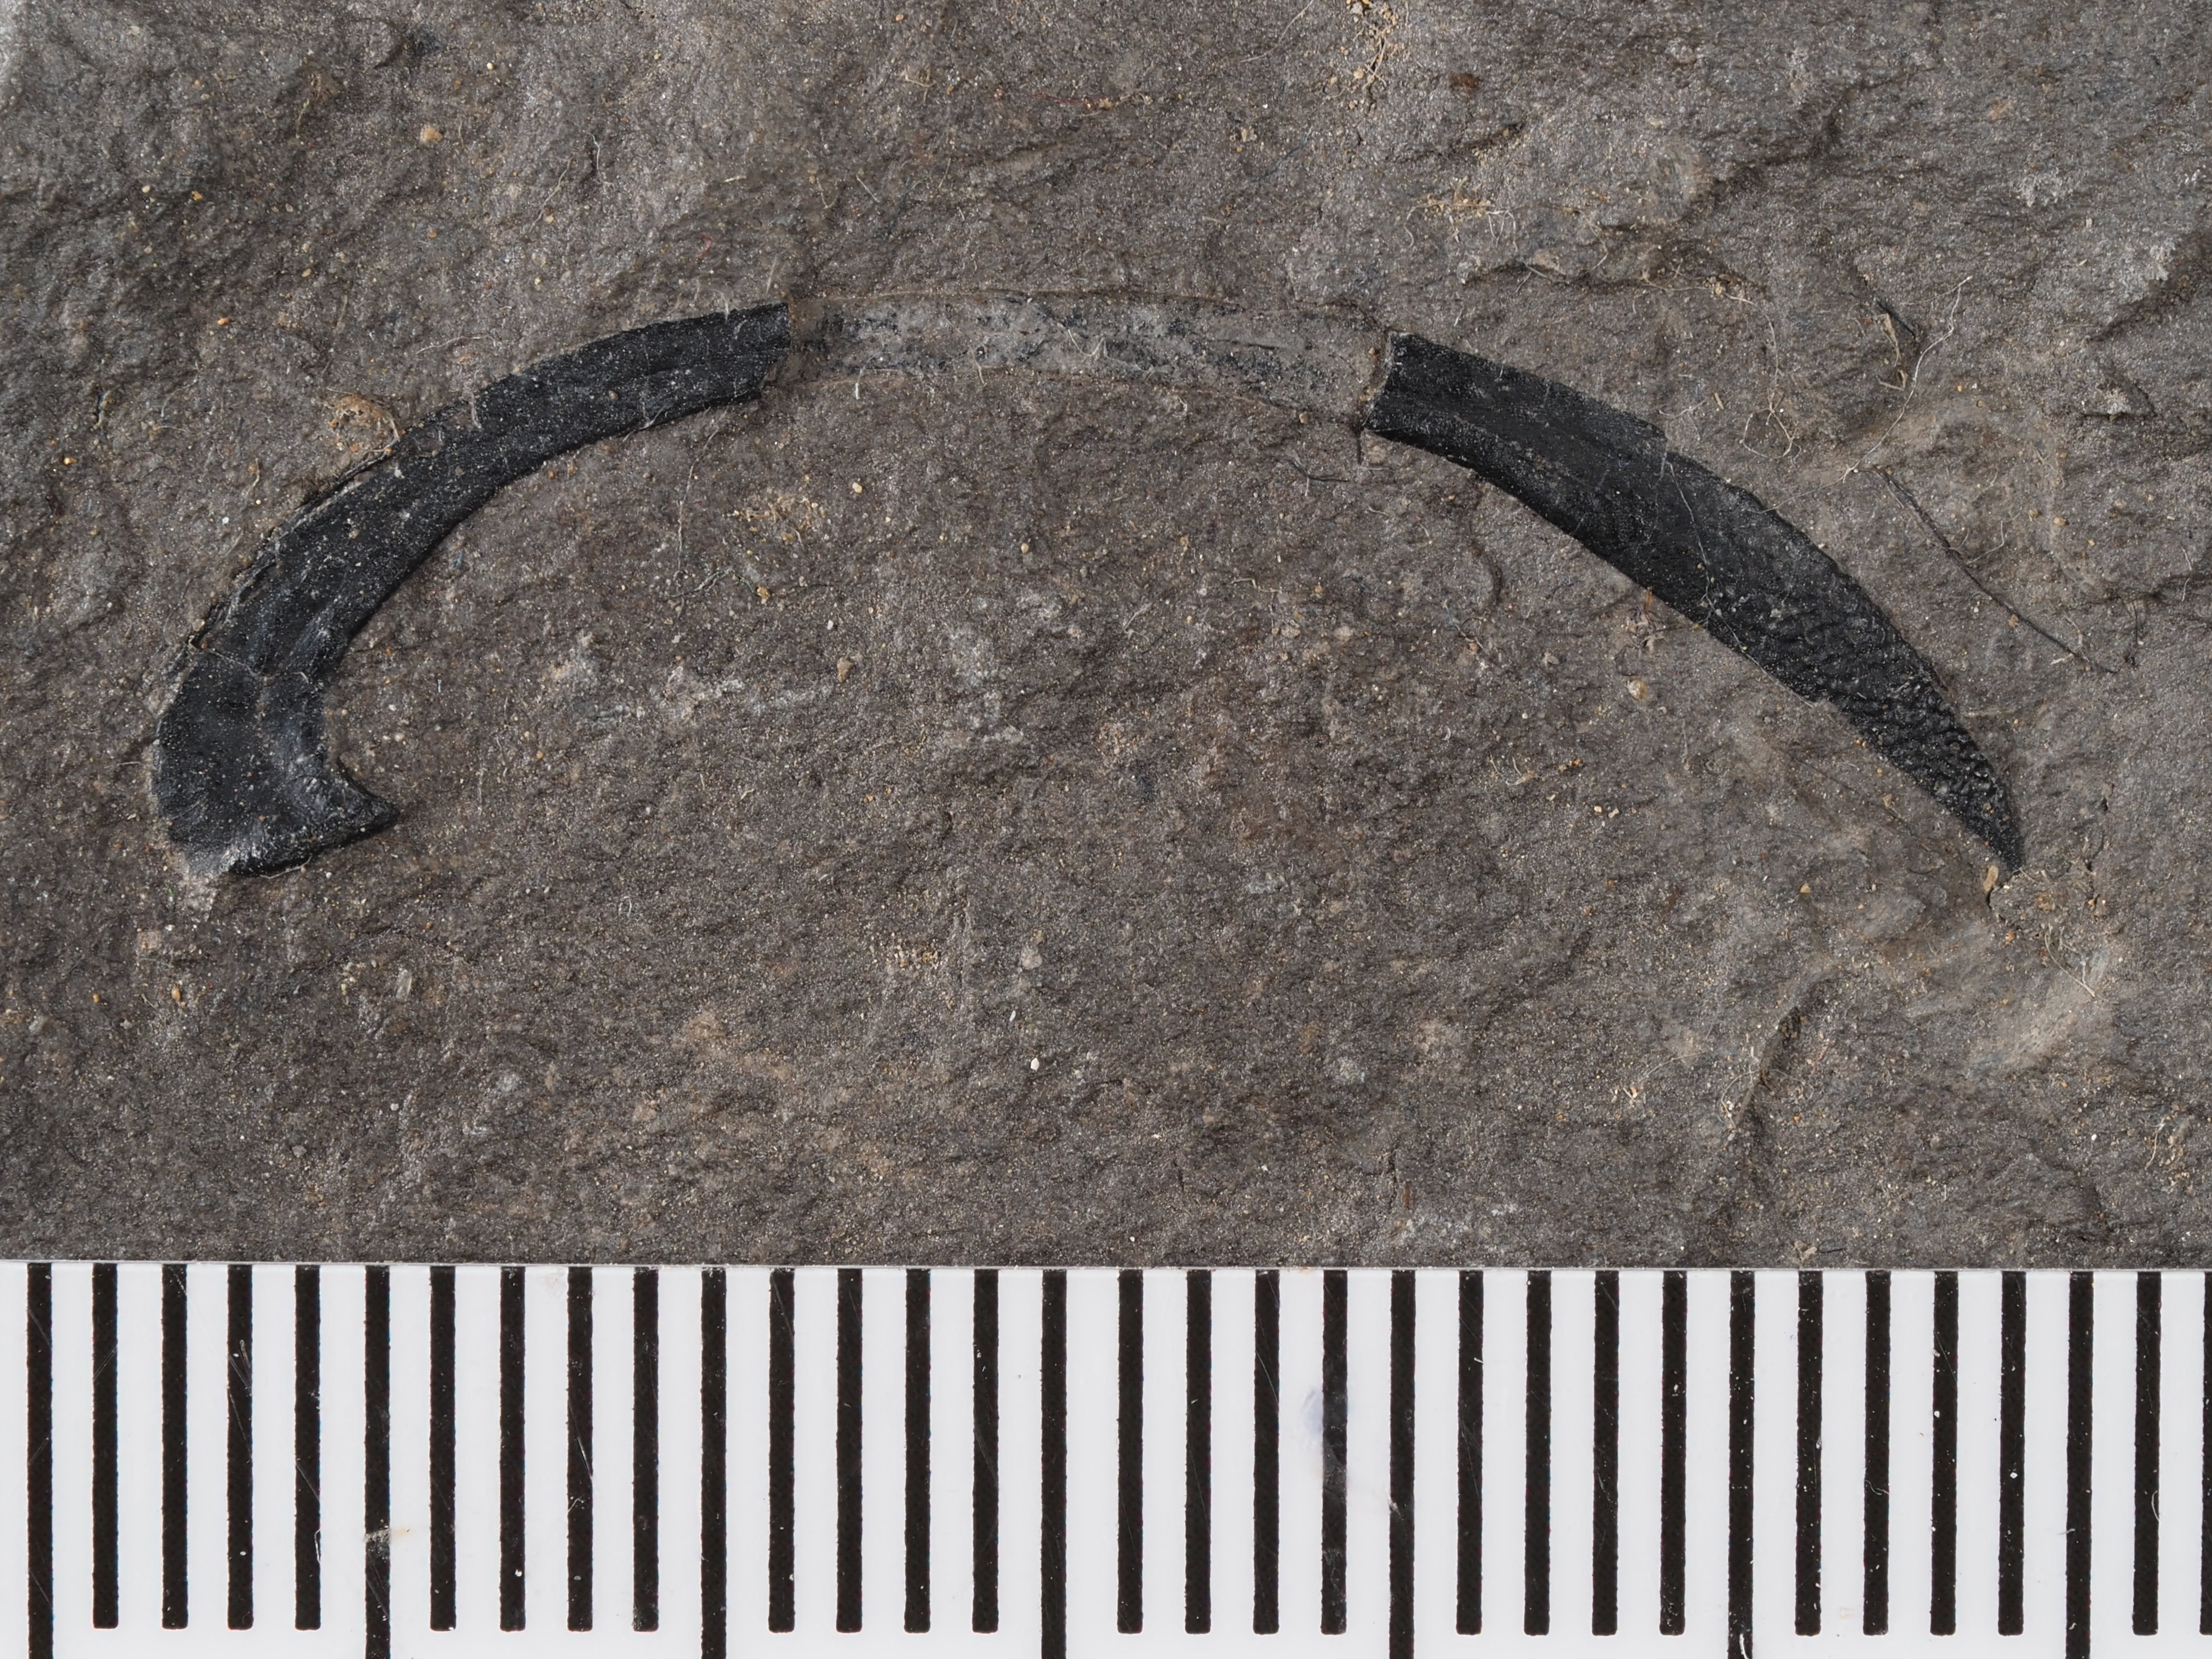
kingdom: Animalia
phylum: Mollusca
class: Cephalopoda
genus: Onychites
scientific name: Onychites
